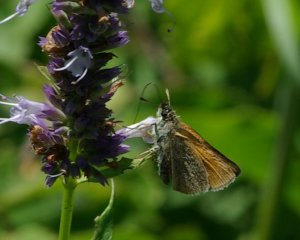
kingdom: Animalia
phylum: Arthropoda
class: Insecta
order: Lepidoptera
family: Hesperiidae
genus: Thymelicus
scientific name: Thymelicus lineola
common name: European Skipper
